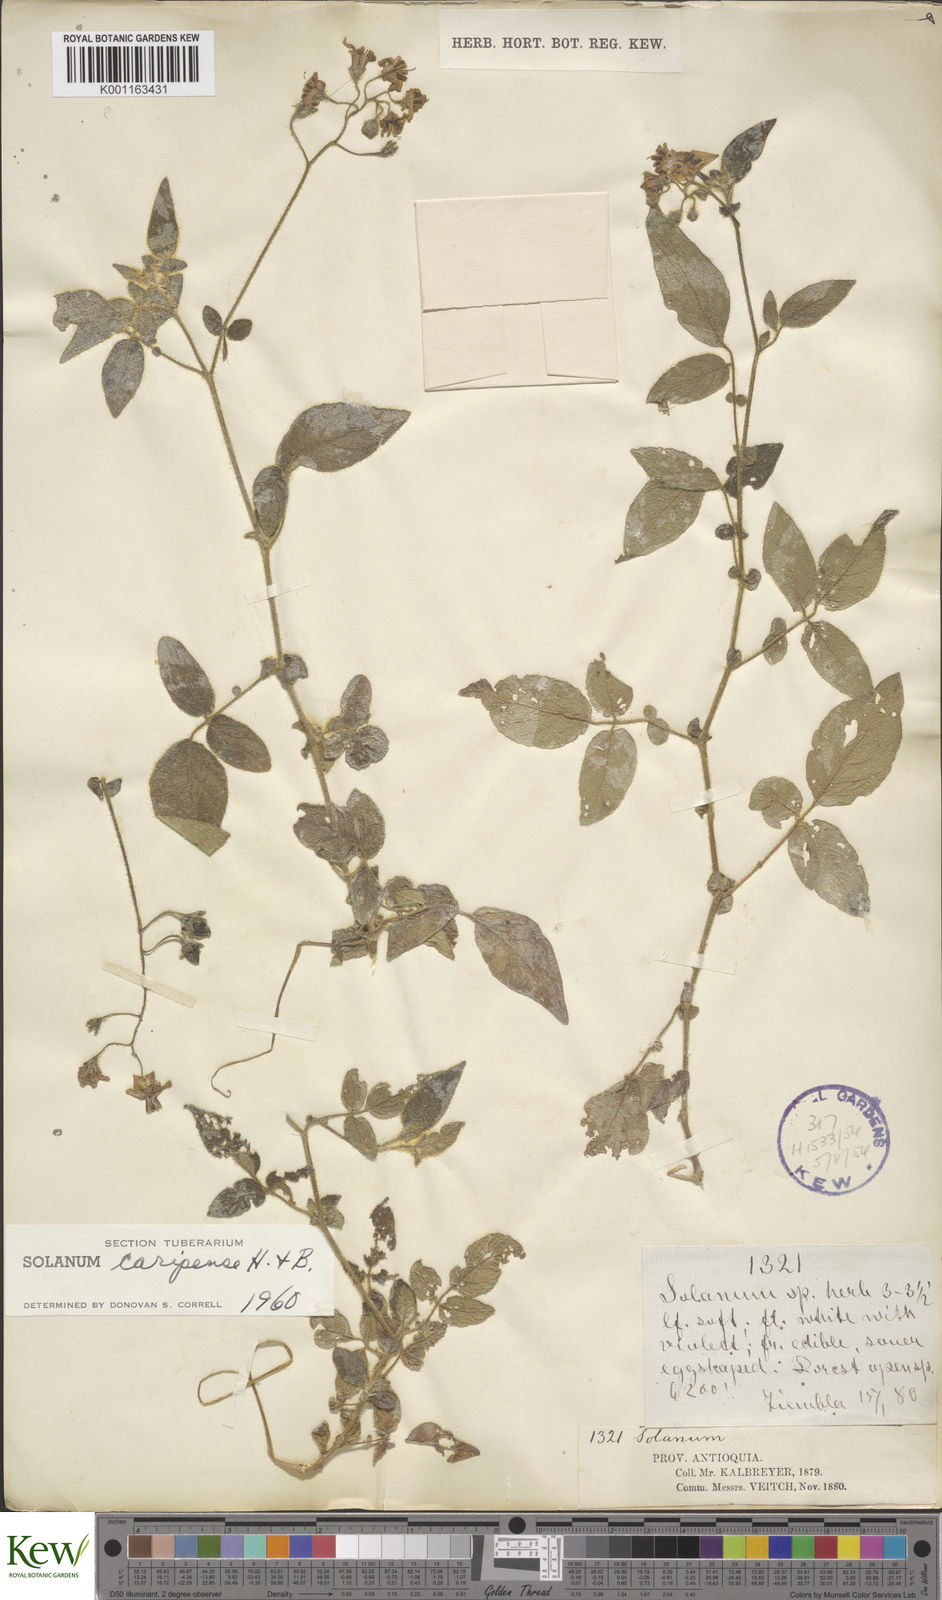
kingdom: Plantae
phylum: Tracheophyta
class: Magnoliopsida
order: Solanales
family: Solanaceae
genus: Solanum
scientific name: Solanum caripense
